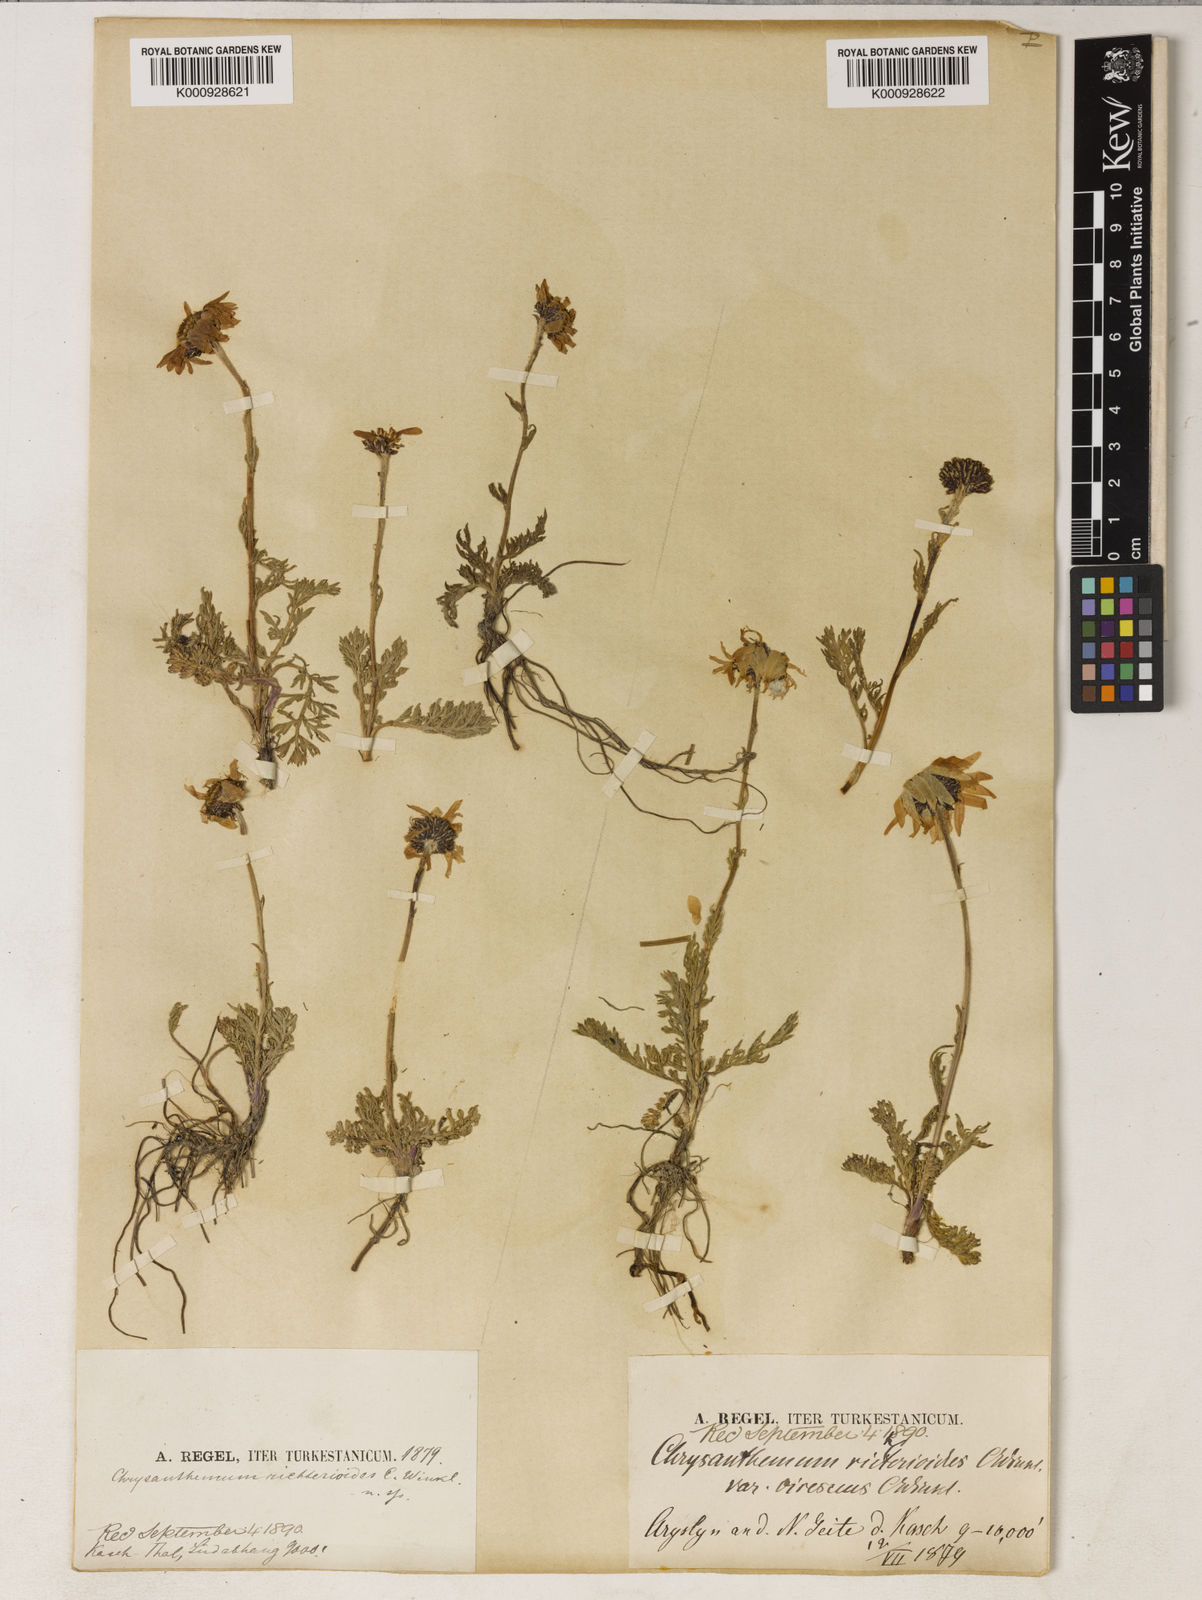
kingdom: Plantae
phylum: Tracheophyta
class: Magnoliopsida
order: Caryophyllales
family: Cactaceae
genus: Tacinga
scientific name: Tacinga inamoena
